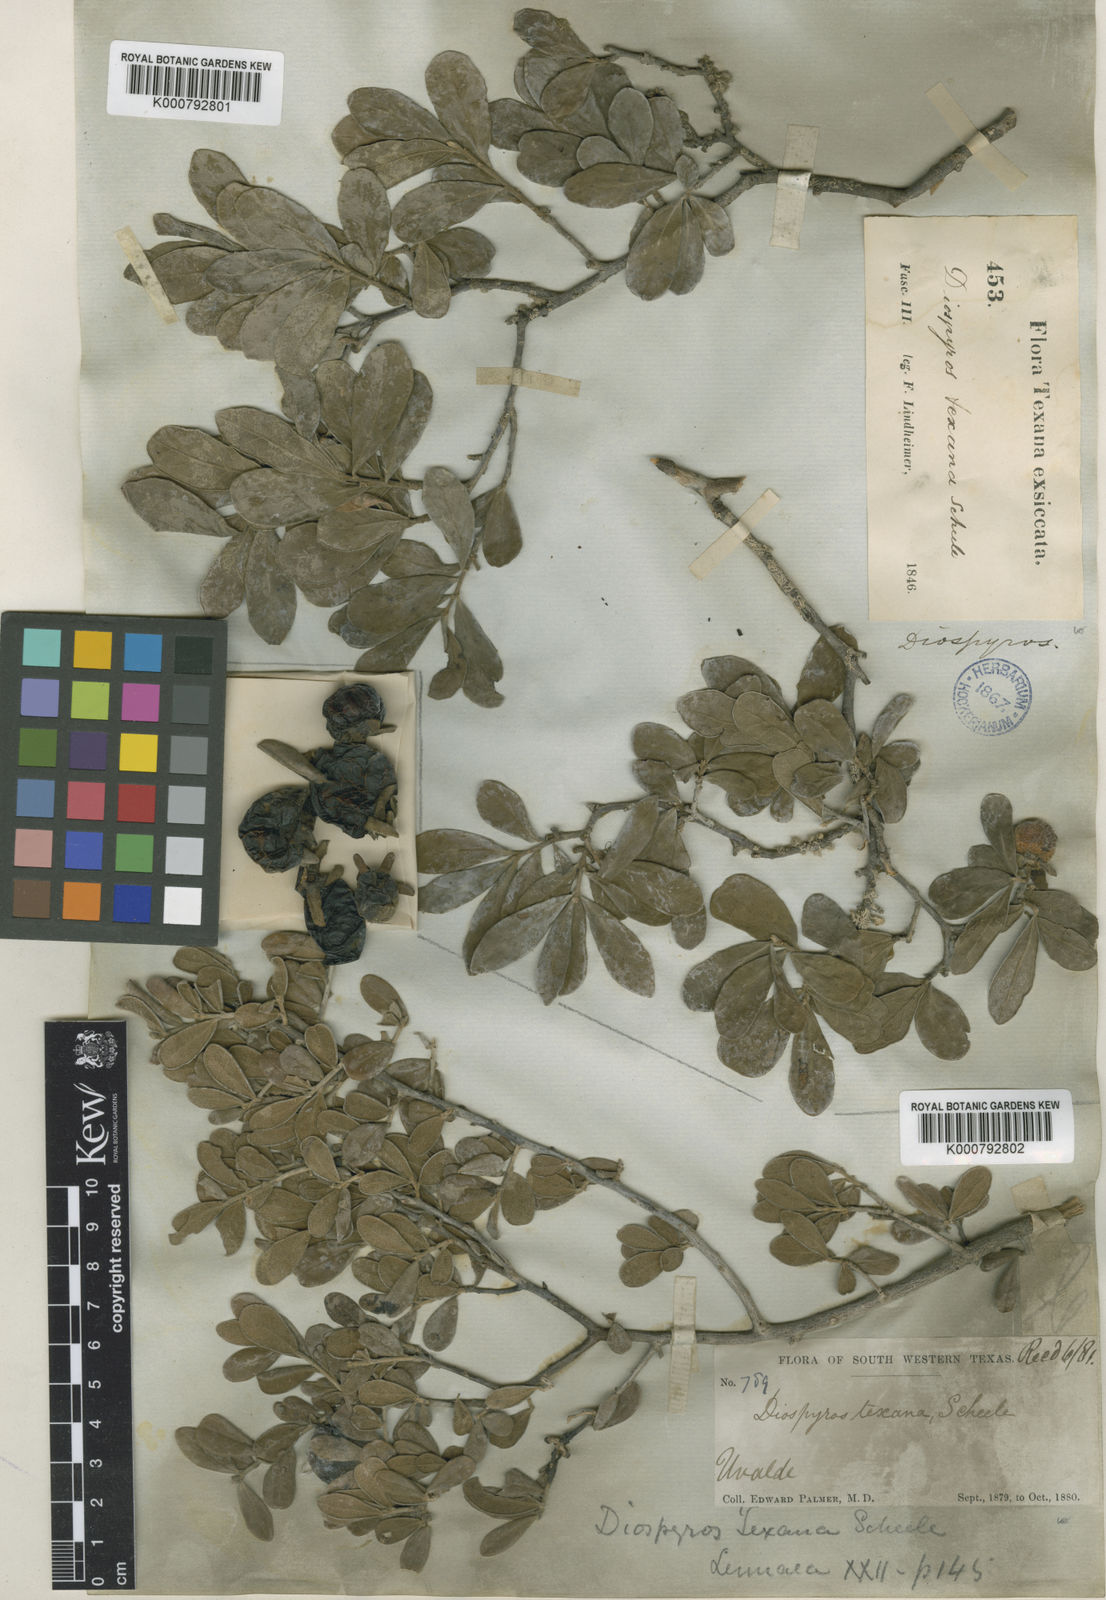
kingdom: Plantae
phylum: Tracheophyta
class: Magnoliopsida
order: Ericales
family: Ebenaceae
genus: Diospyros
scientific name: Diospyros texana
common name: Texas persimmon
